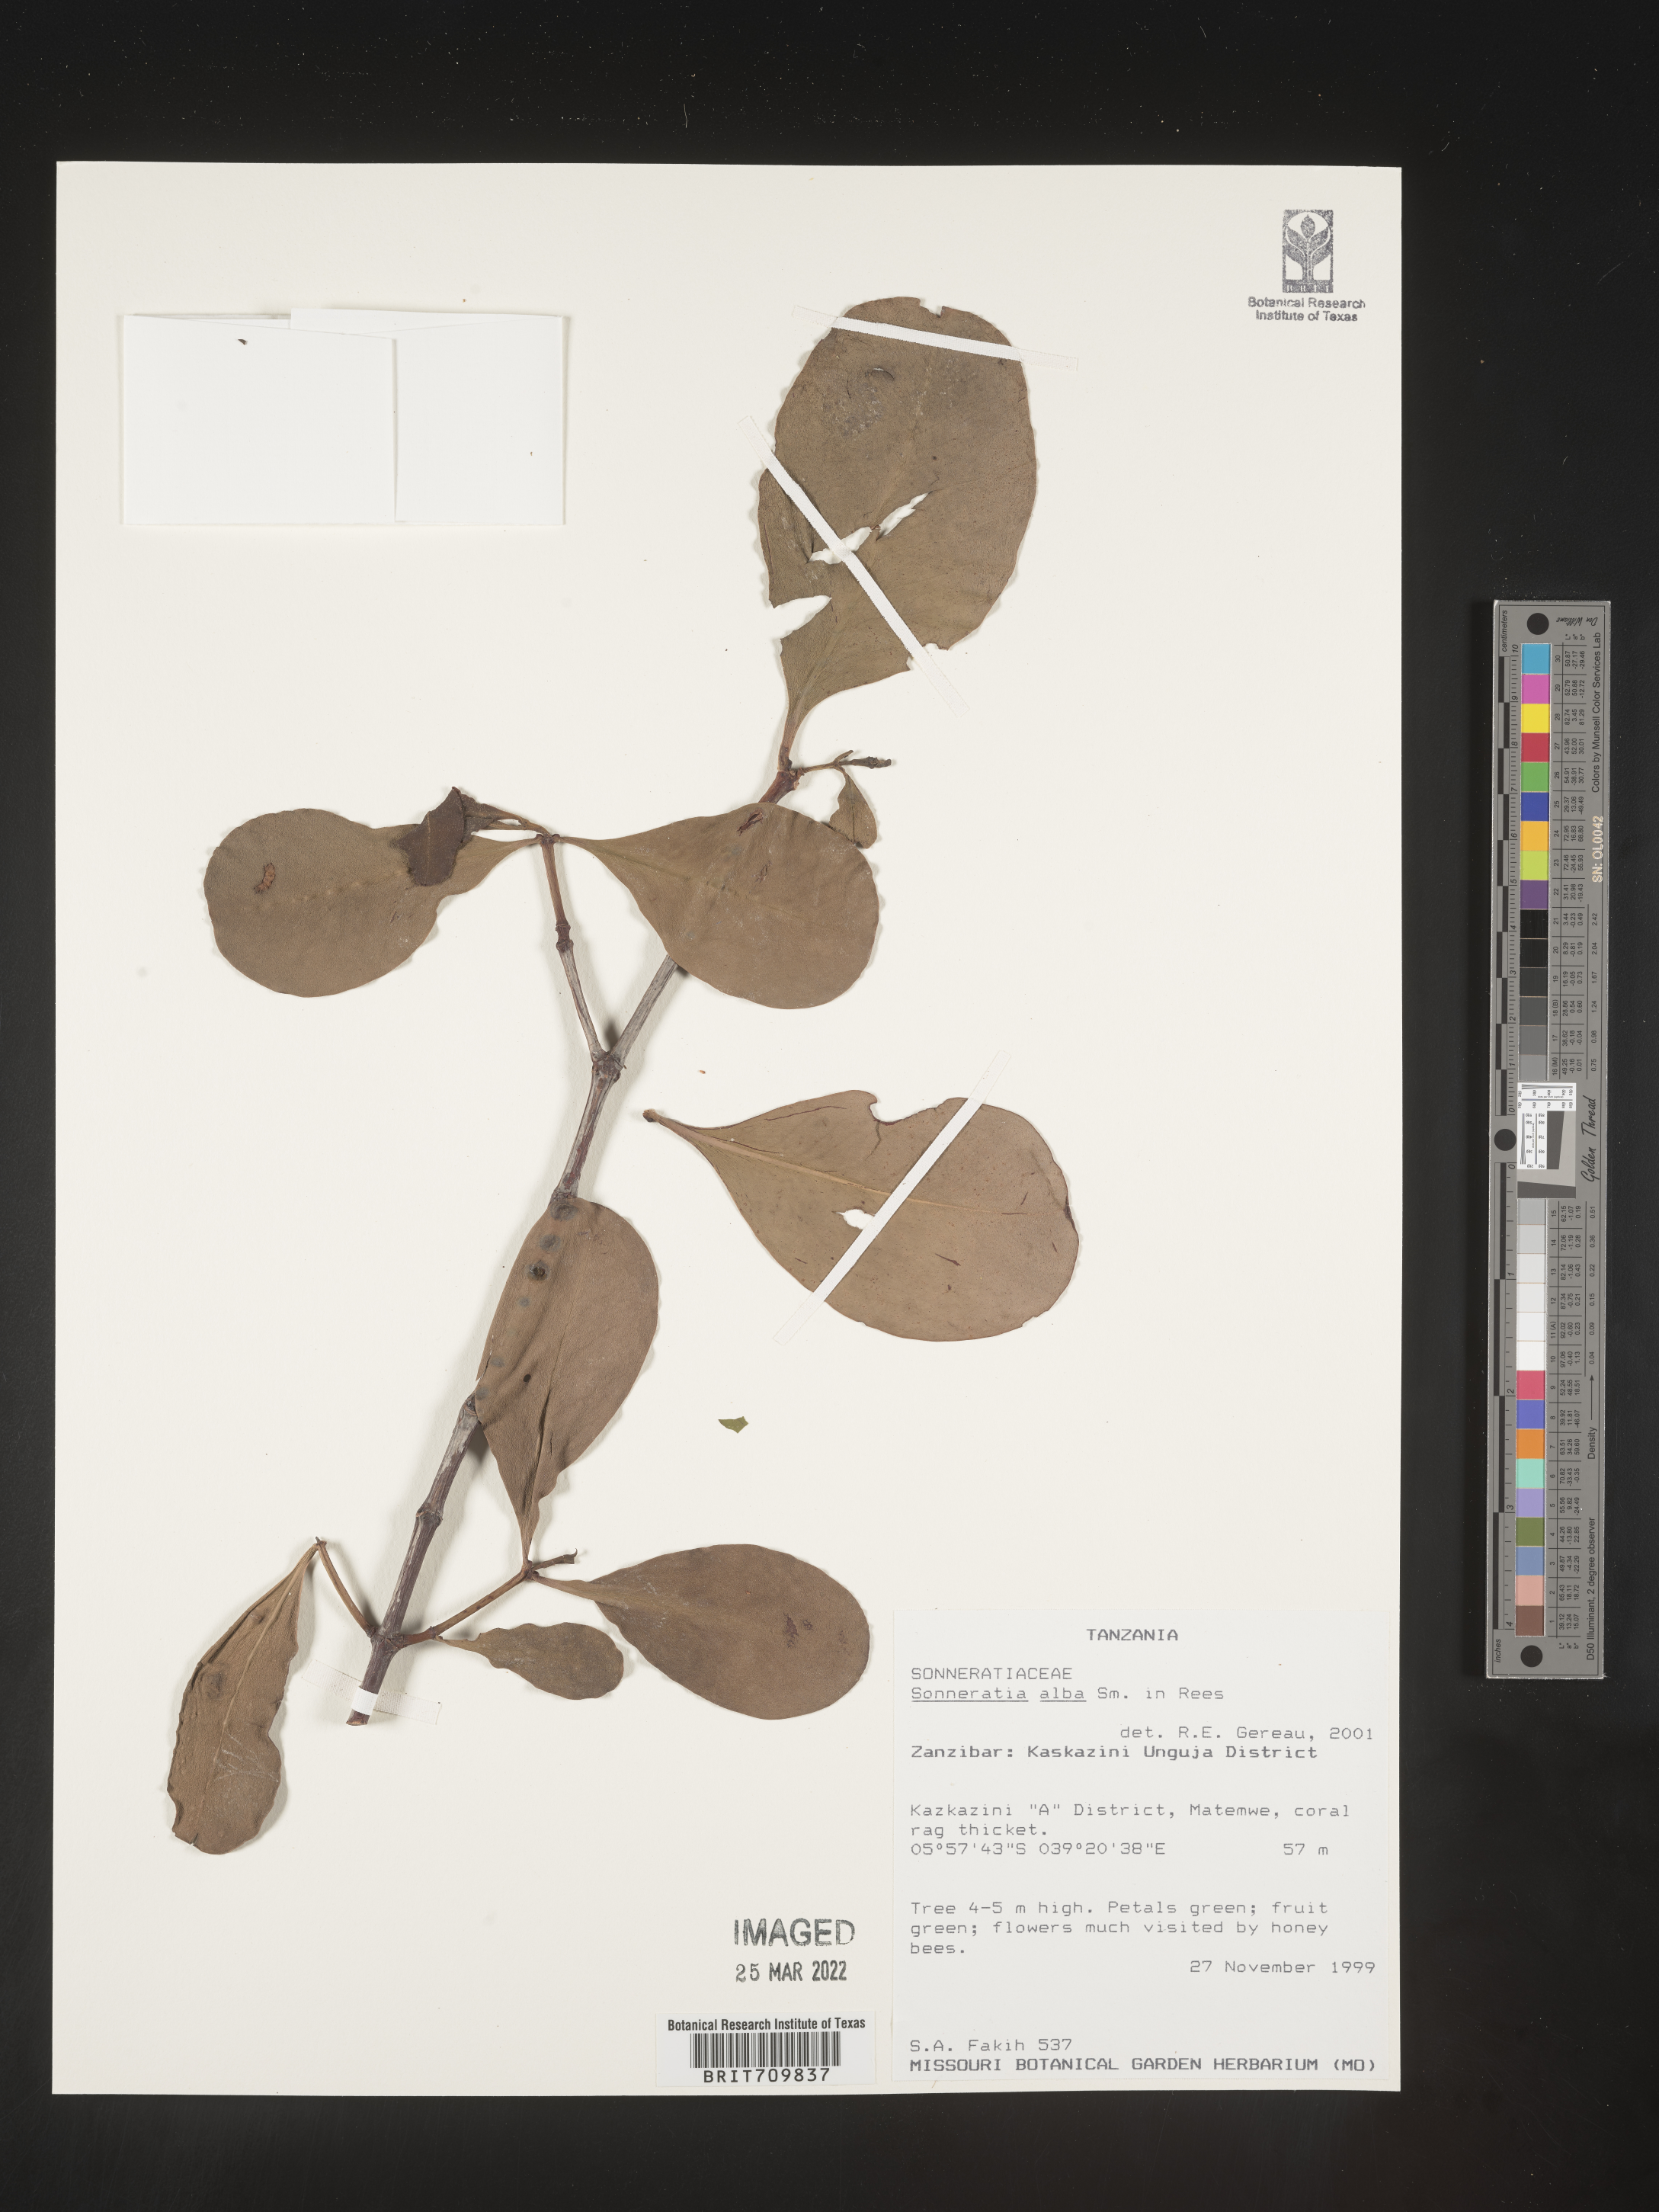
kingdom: Plantae
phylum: Tracheophyta
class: Magnoliopsida
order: Myrtales
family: Lythraceae
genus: Sonneratia
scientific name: Sonneratia
